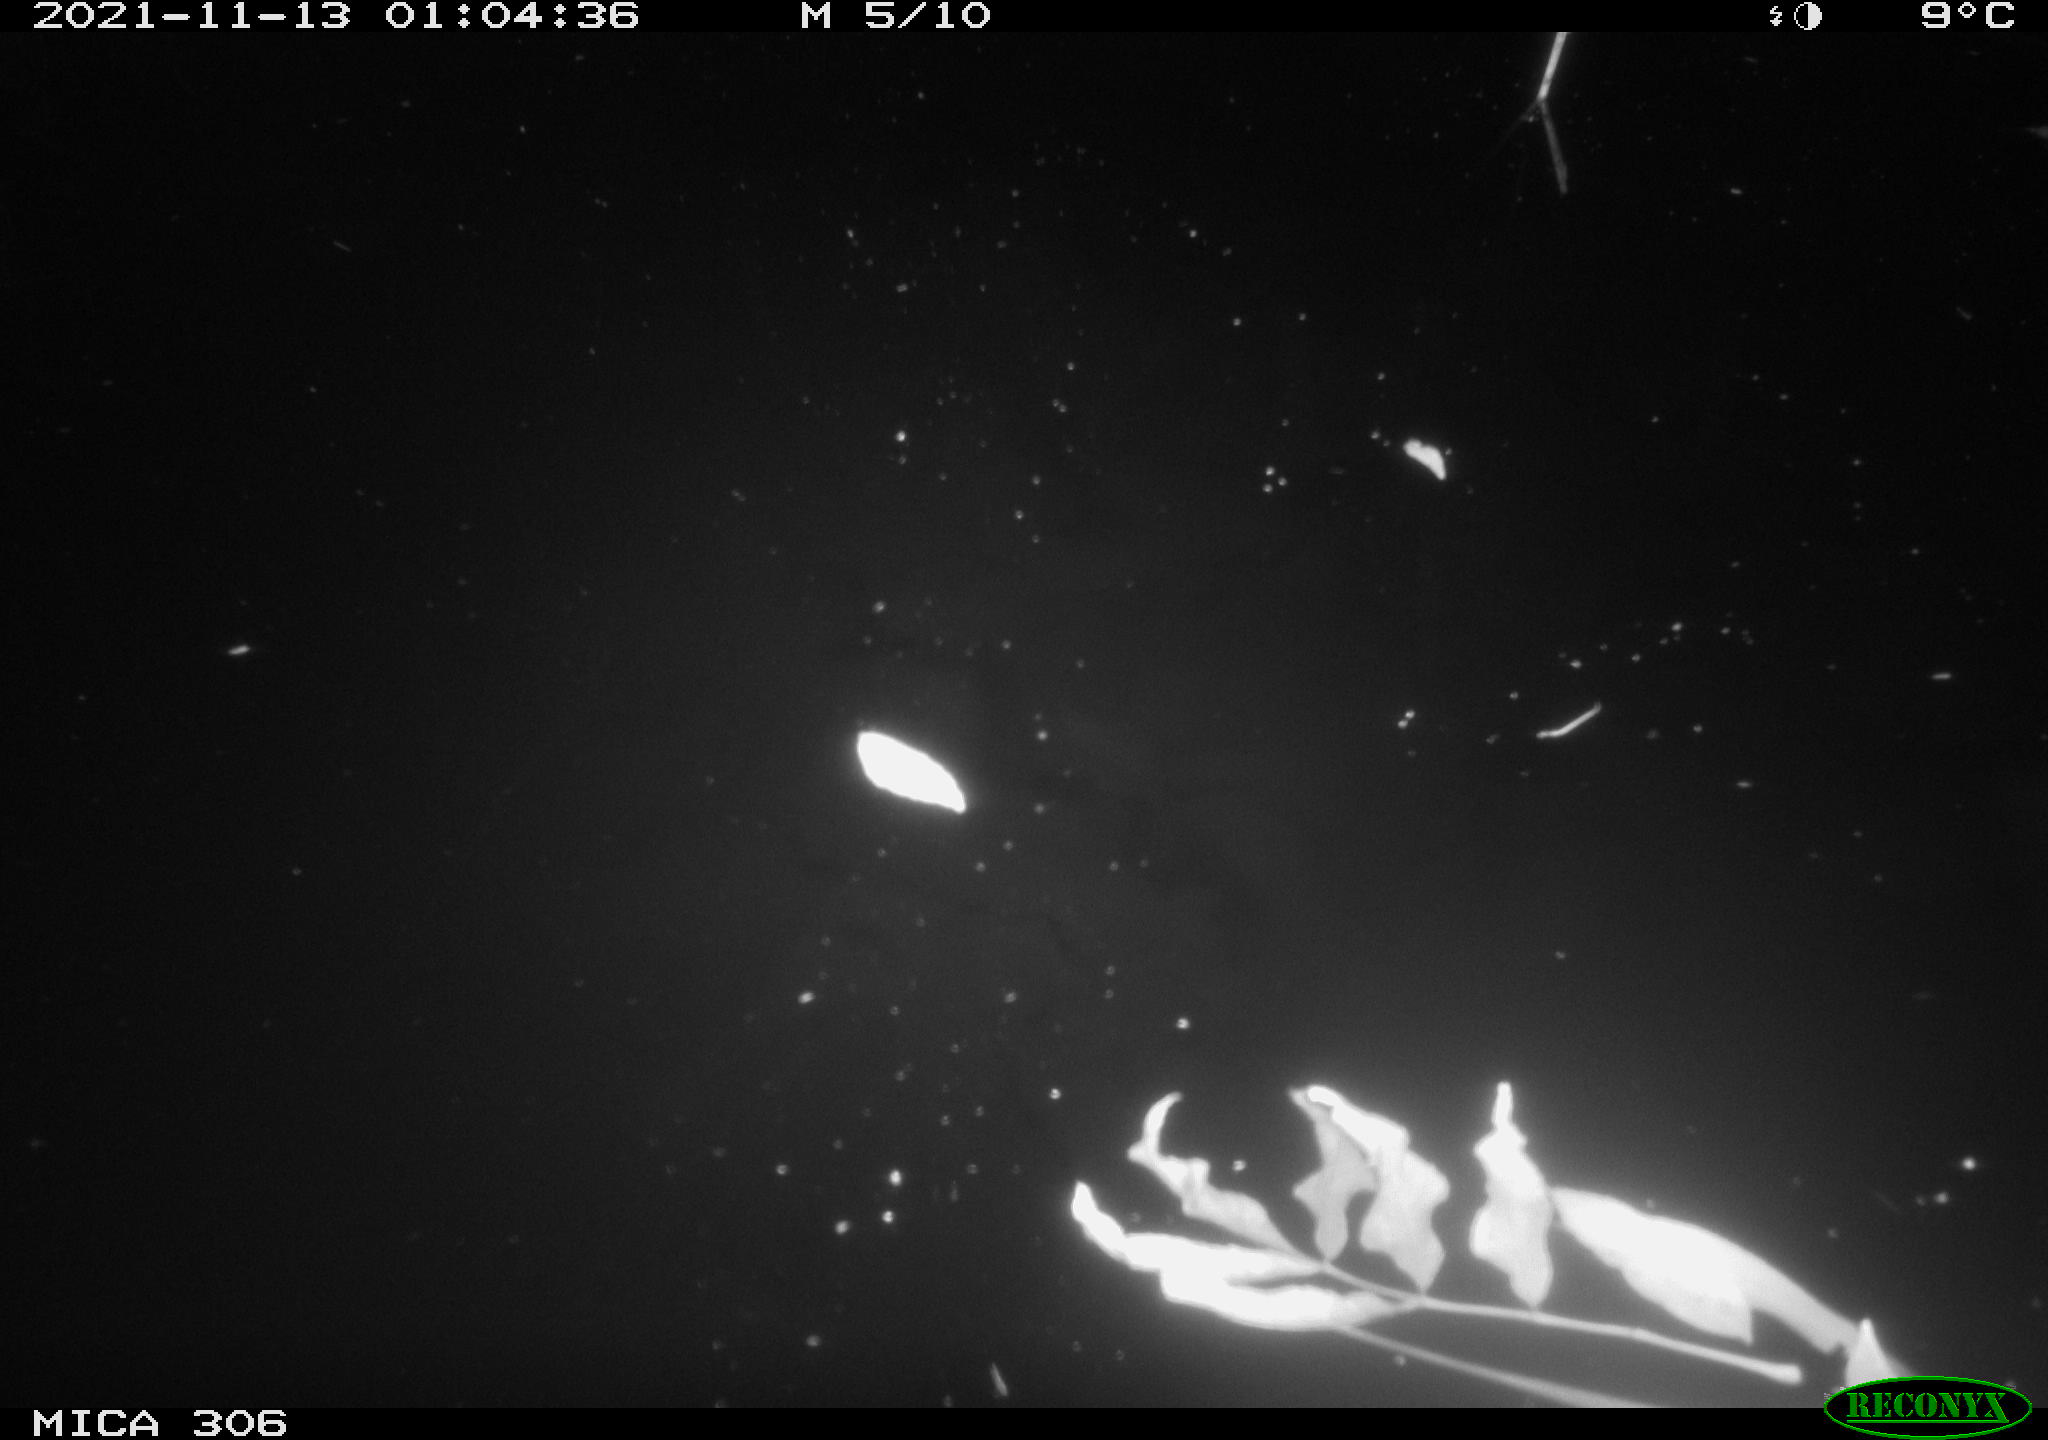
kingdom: Animalia
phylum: Chordata
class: Aves
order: Gruiformes
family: Rallidae
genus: Fulica
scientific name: Fulica atra
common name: Eurasian coot
